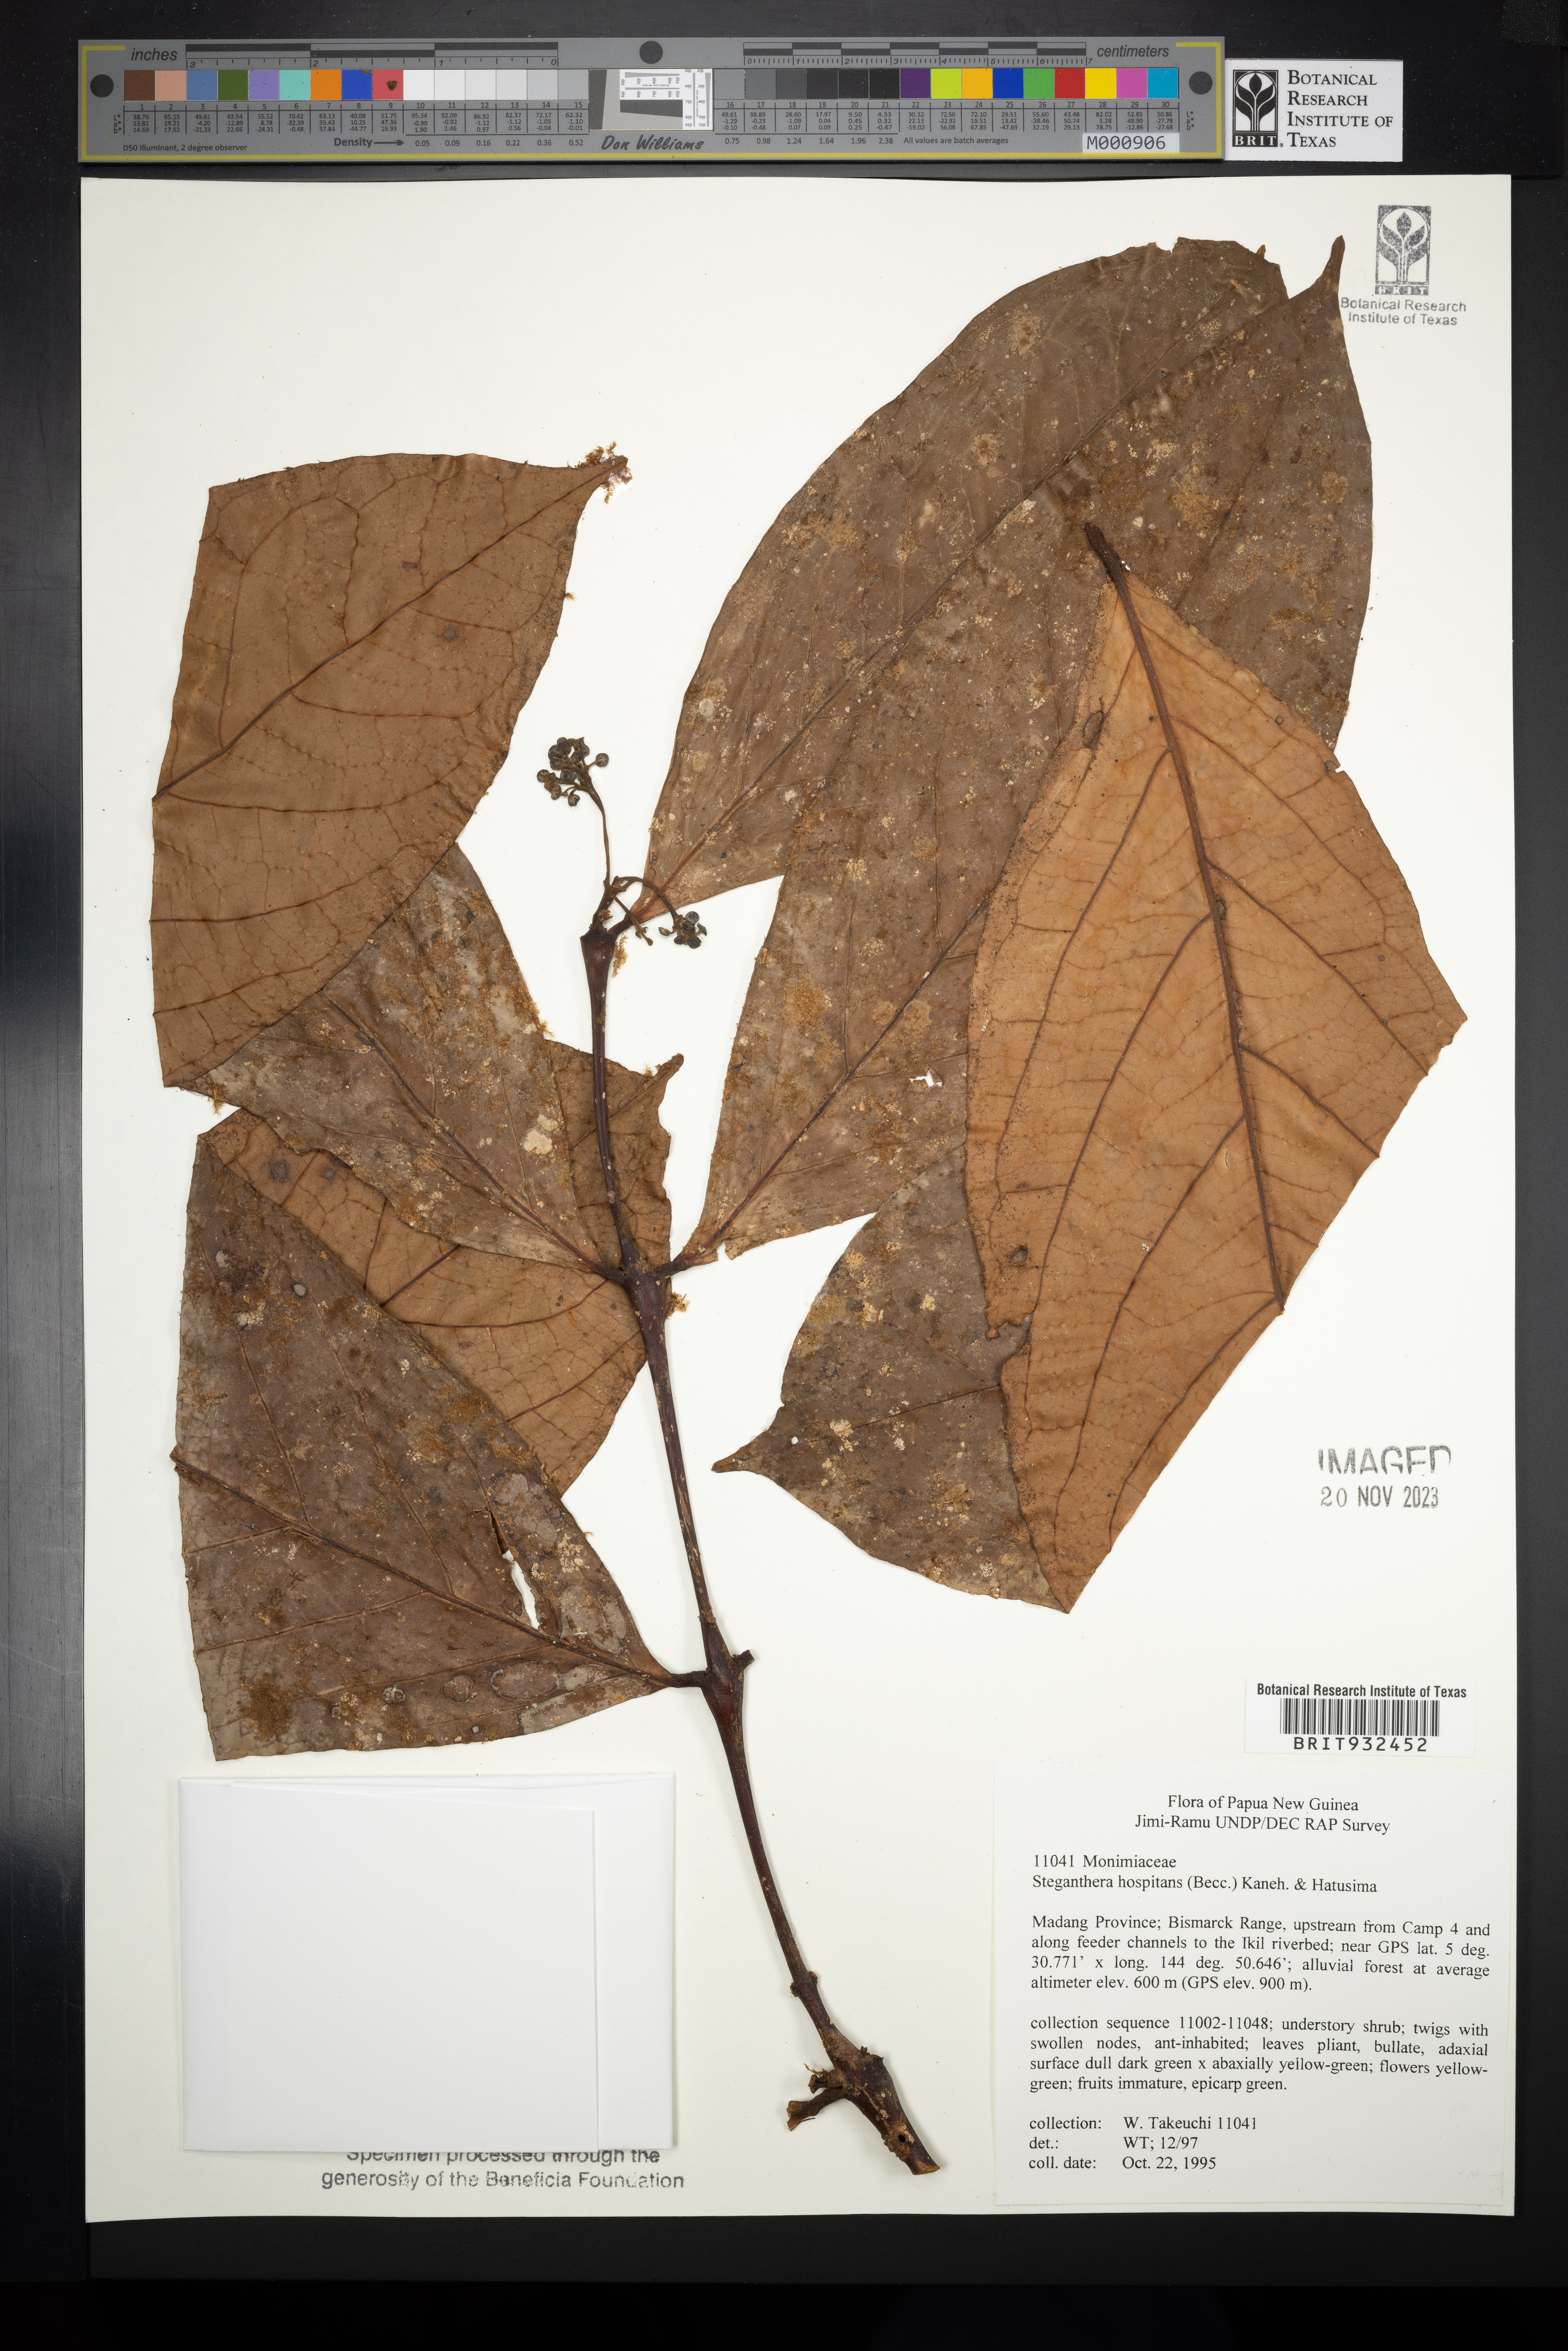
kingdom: Plantae
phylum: Tracheophyta
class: Magnoliopsida
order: Laurales
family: Monimiaceae
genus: Steganthera
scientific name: Steganthera
